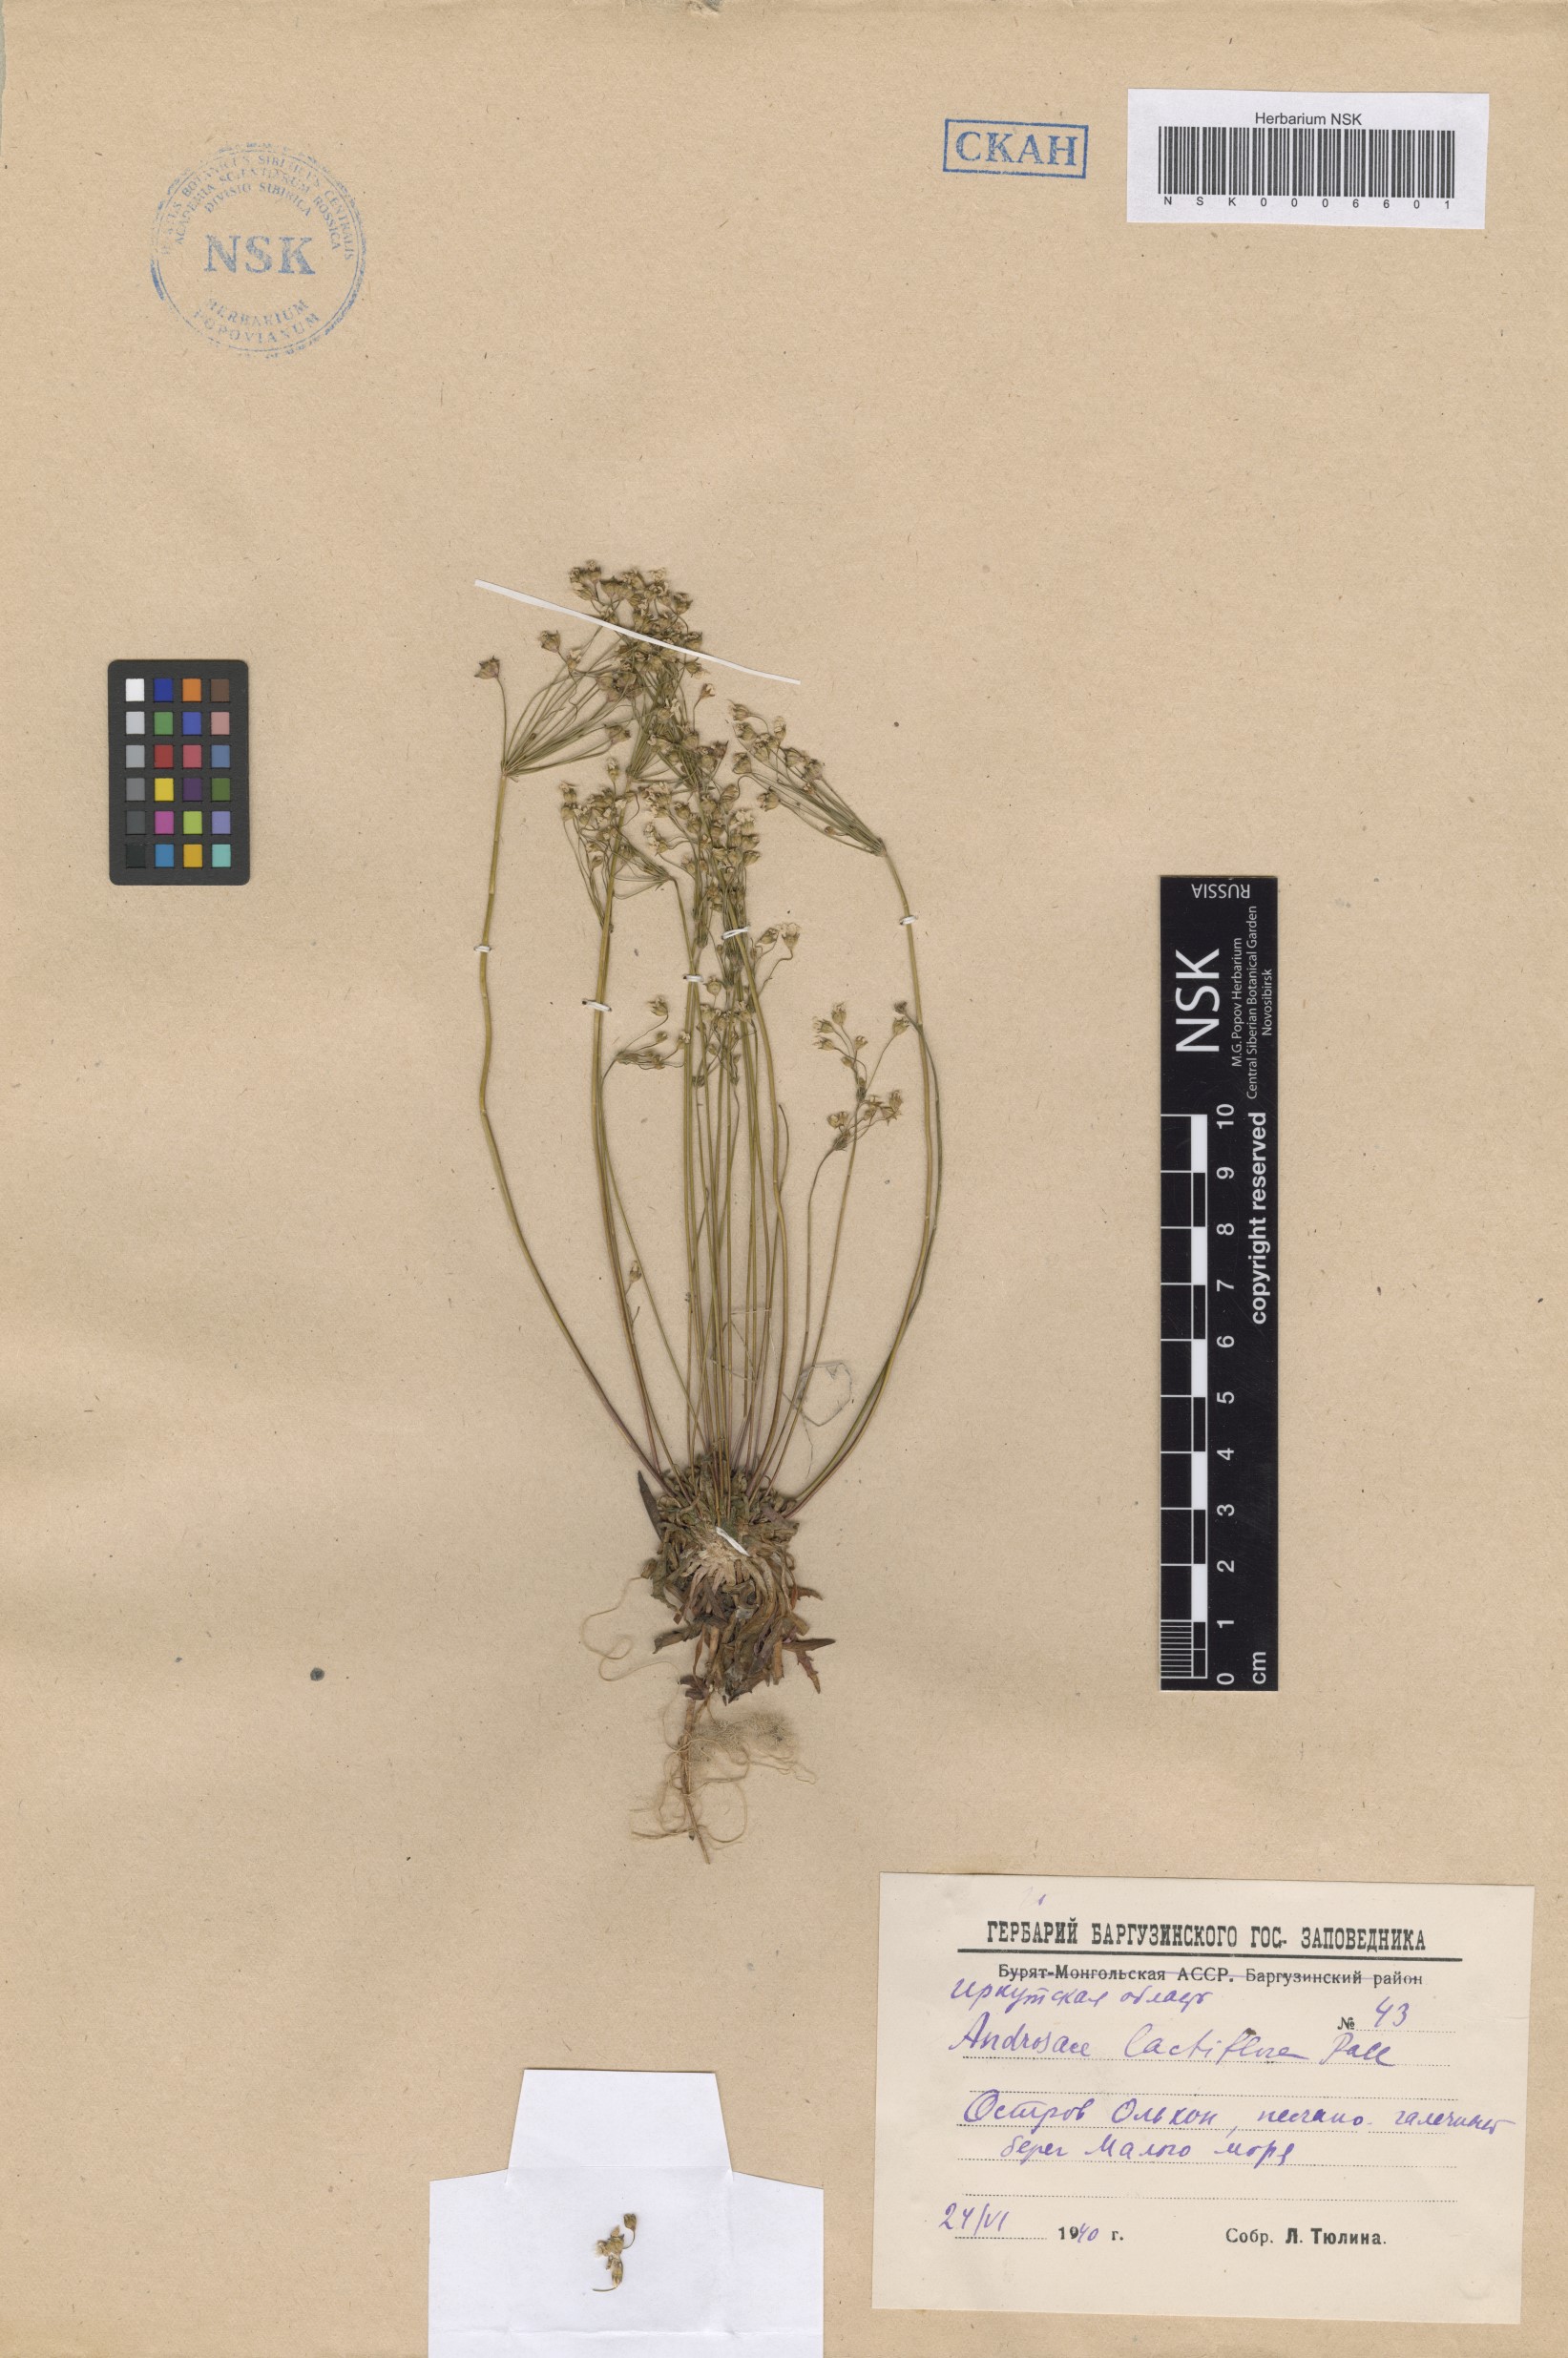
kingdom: Plantae
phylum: Tracheophyta
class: Magnoliopsida
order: Ericales
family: Primulaceae
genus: Androsace
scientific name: Androsace lactiflora
